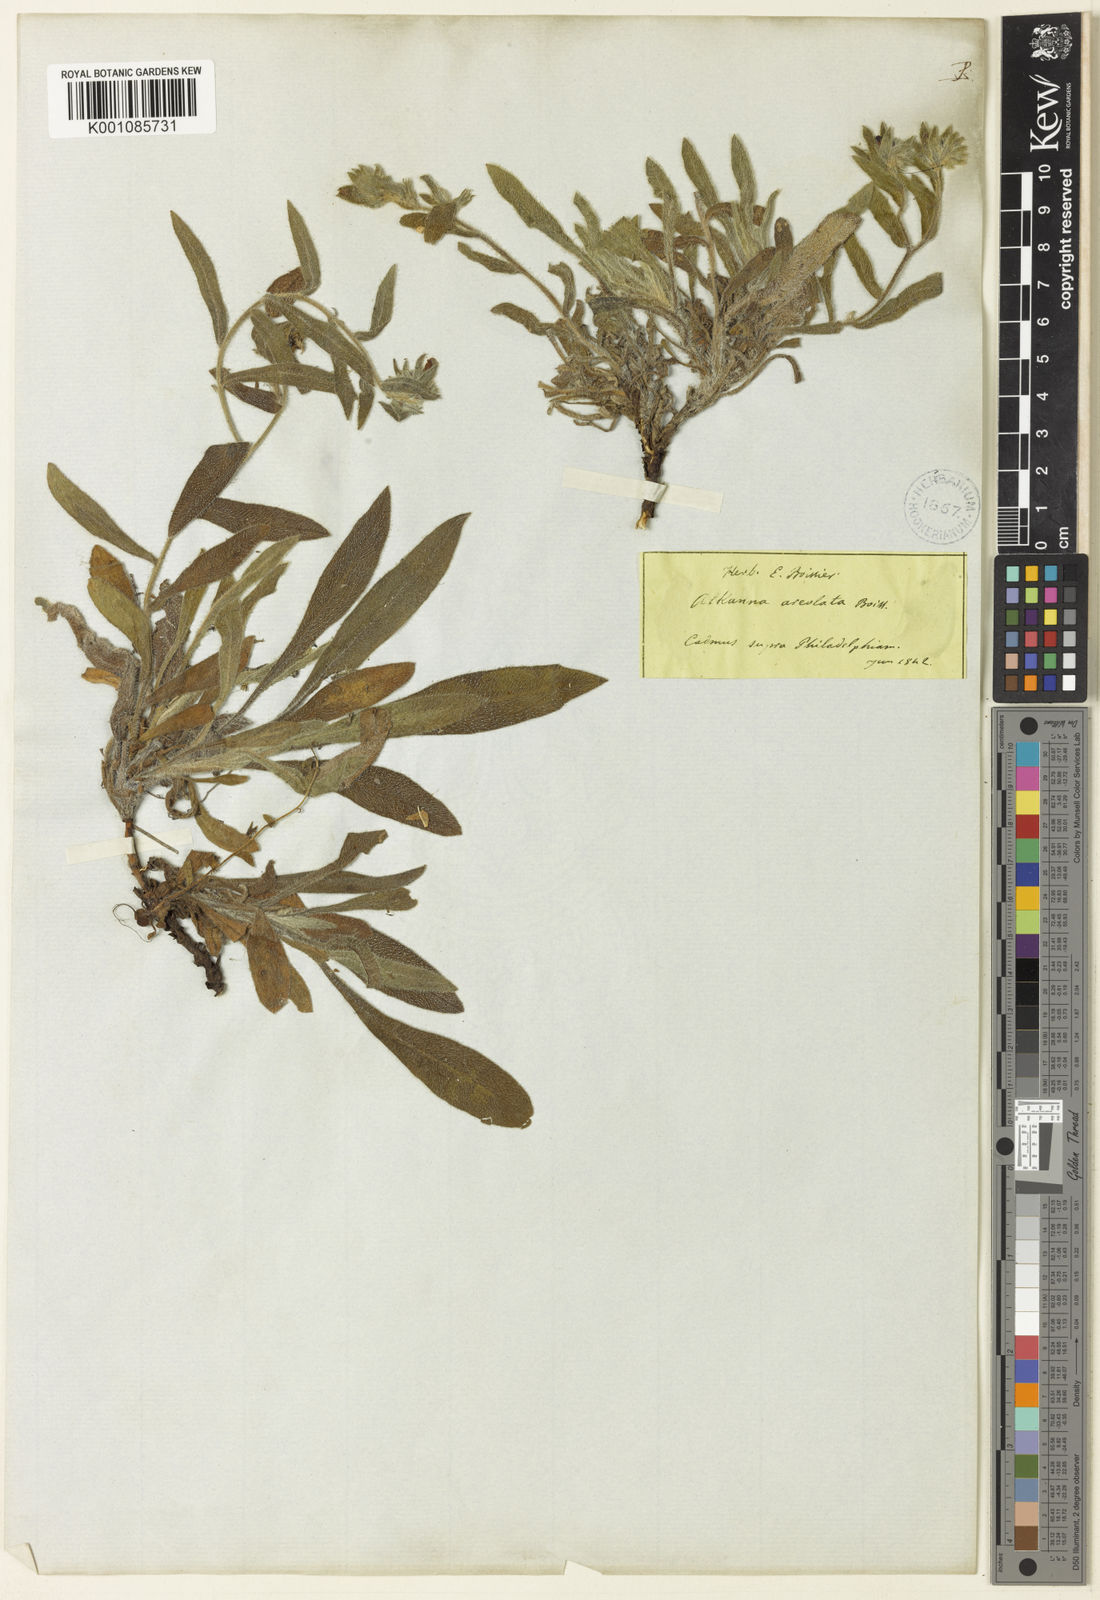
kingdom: Plantae
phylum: Tracheophyta
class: Magnoliopsida
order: Boraginales
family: Boraginaceae
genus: Alkanna
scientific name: Alkanna areolata
